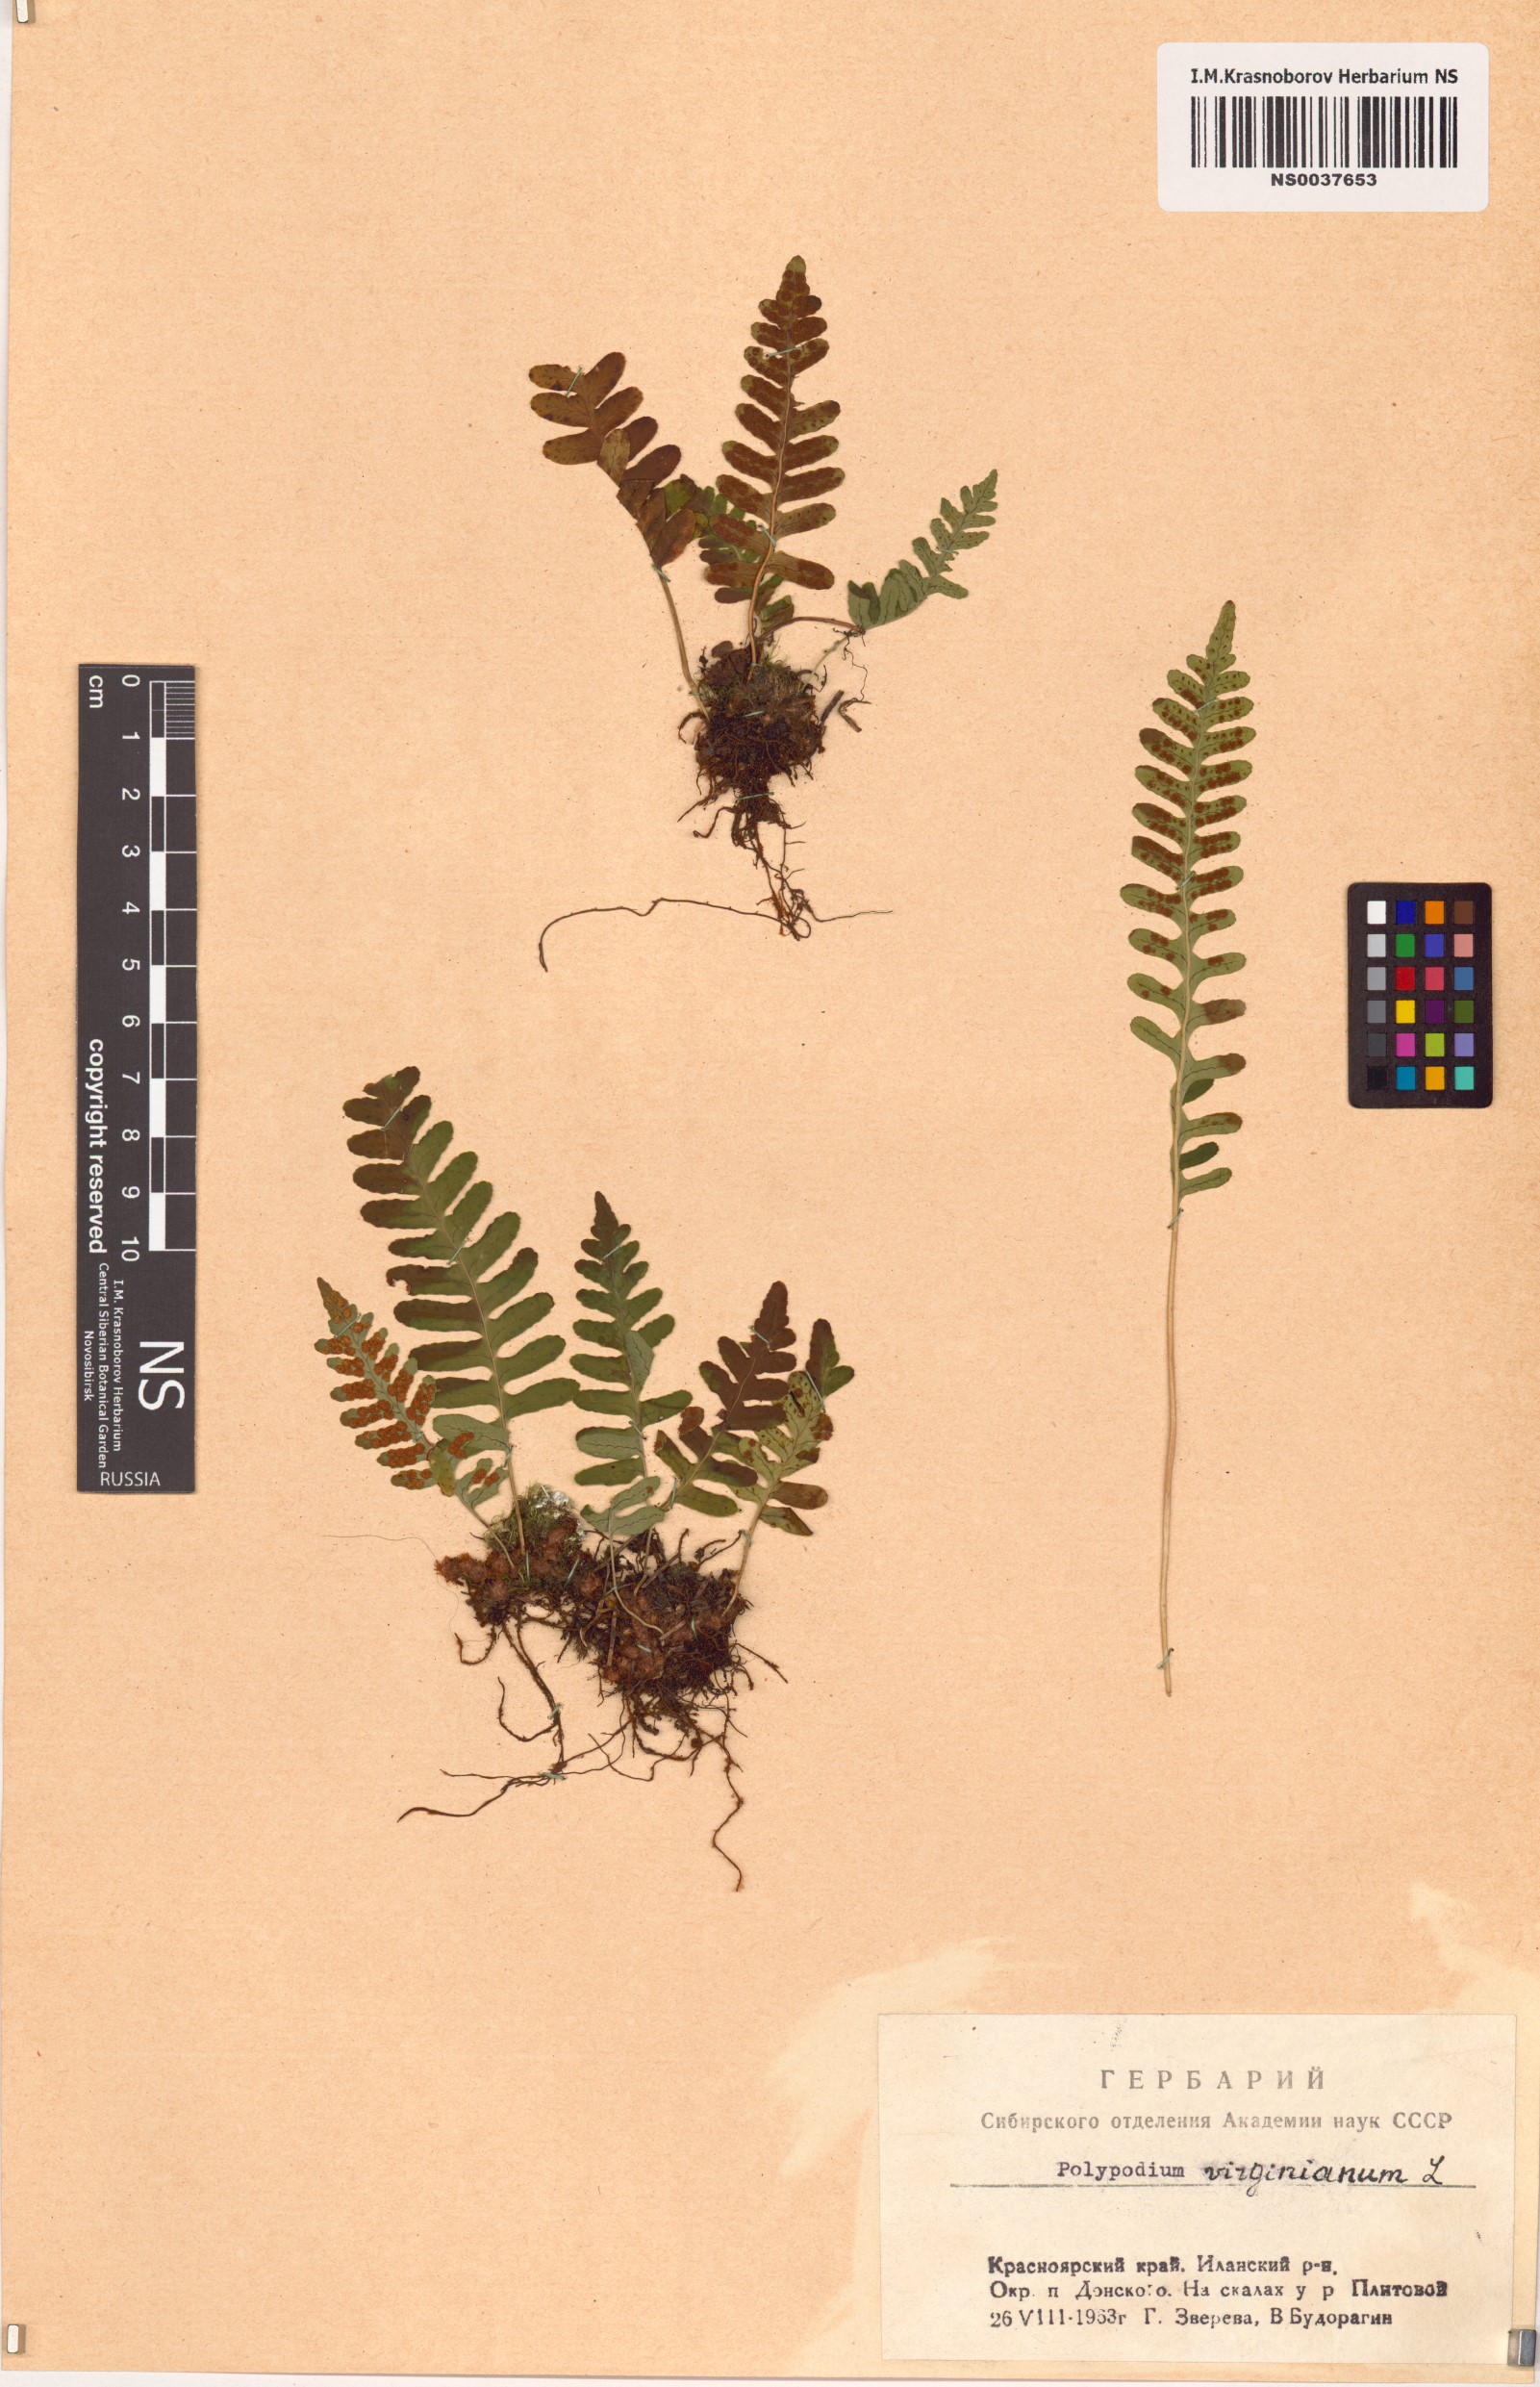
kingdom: Plantae
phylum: Tracheophyta
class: Polypodiopsida
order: Polypodiales
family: Polypodiaceae
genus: Polypodium
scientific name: Polypodium virginianum
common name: American wall fern
